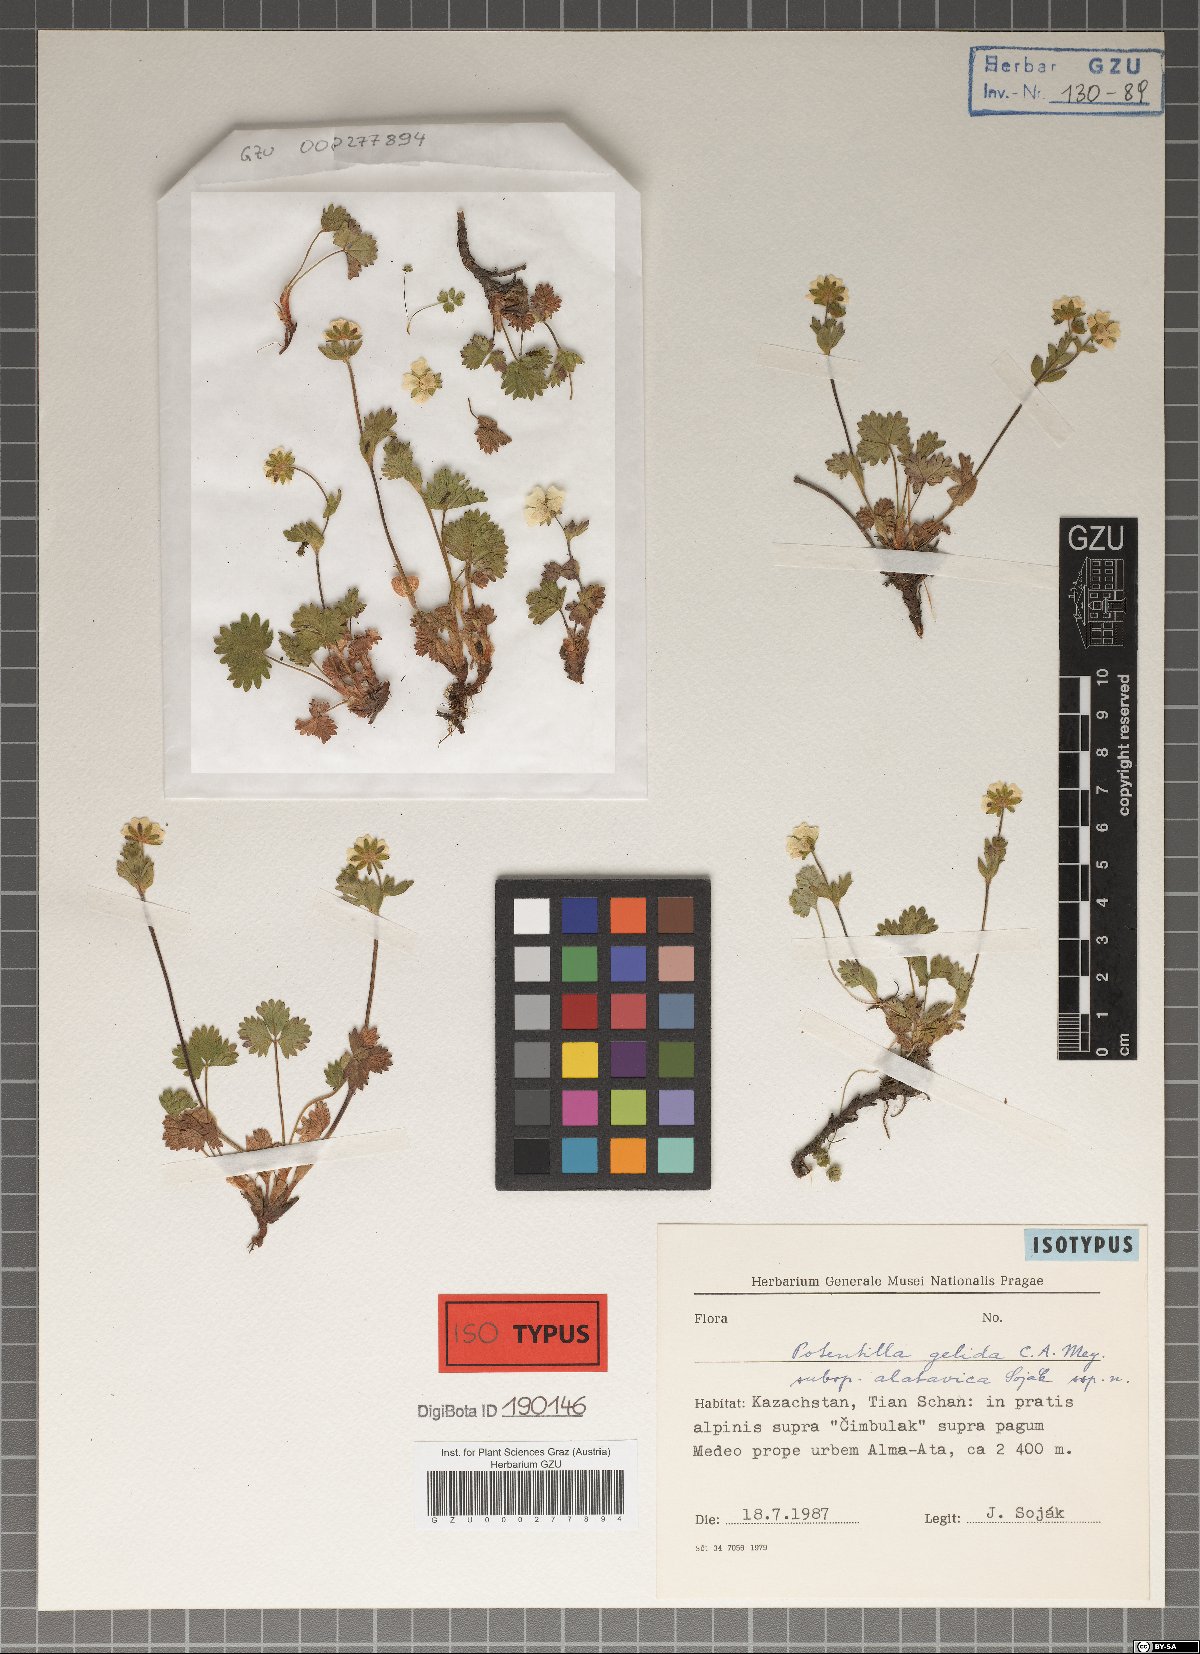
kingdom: Plantae
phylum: Tracheophyta
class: Magnoliopsida
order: Rosales
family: Rosaceae
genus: Potentilla
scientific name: Potentilla
